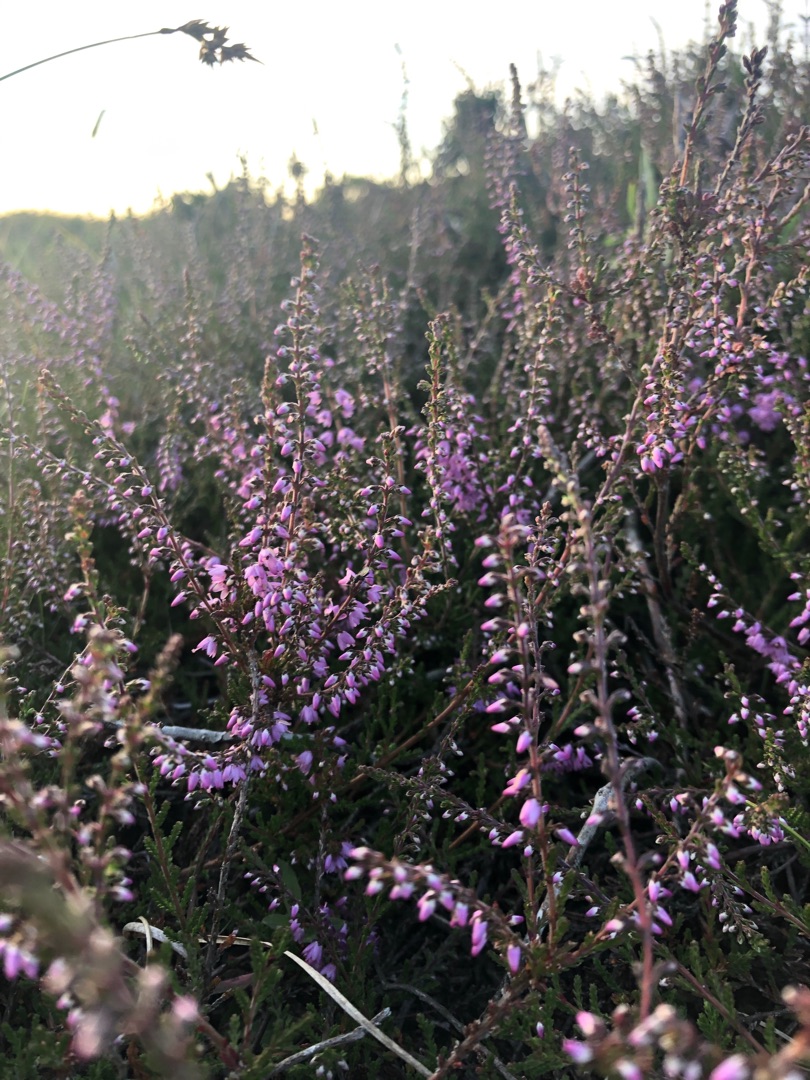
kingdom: Plantae
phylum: Tracheophyta
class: Magnoliopsida
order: Ericales
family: Ericaceae
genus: Calluna
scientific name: Calluna vulgaris
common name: Hedelyng
